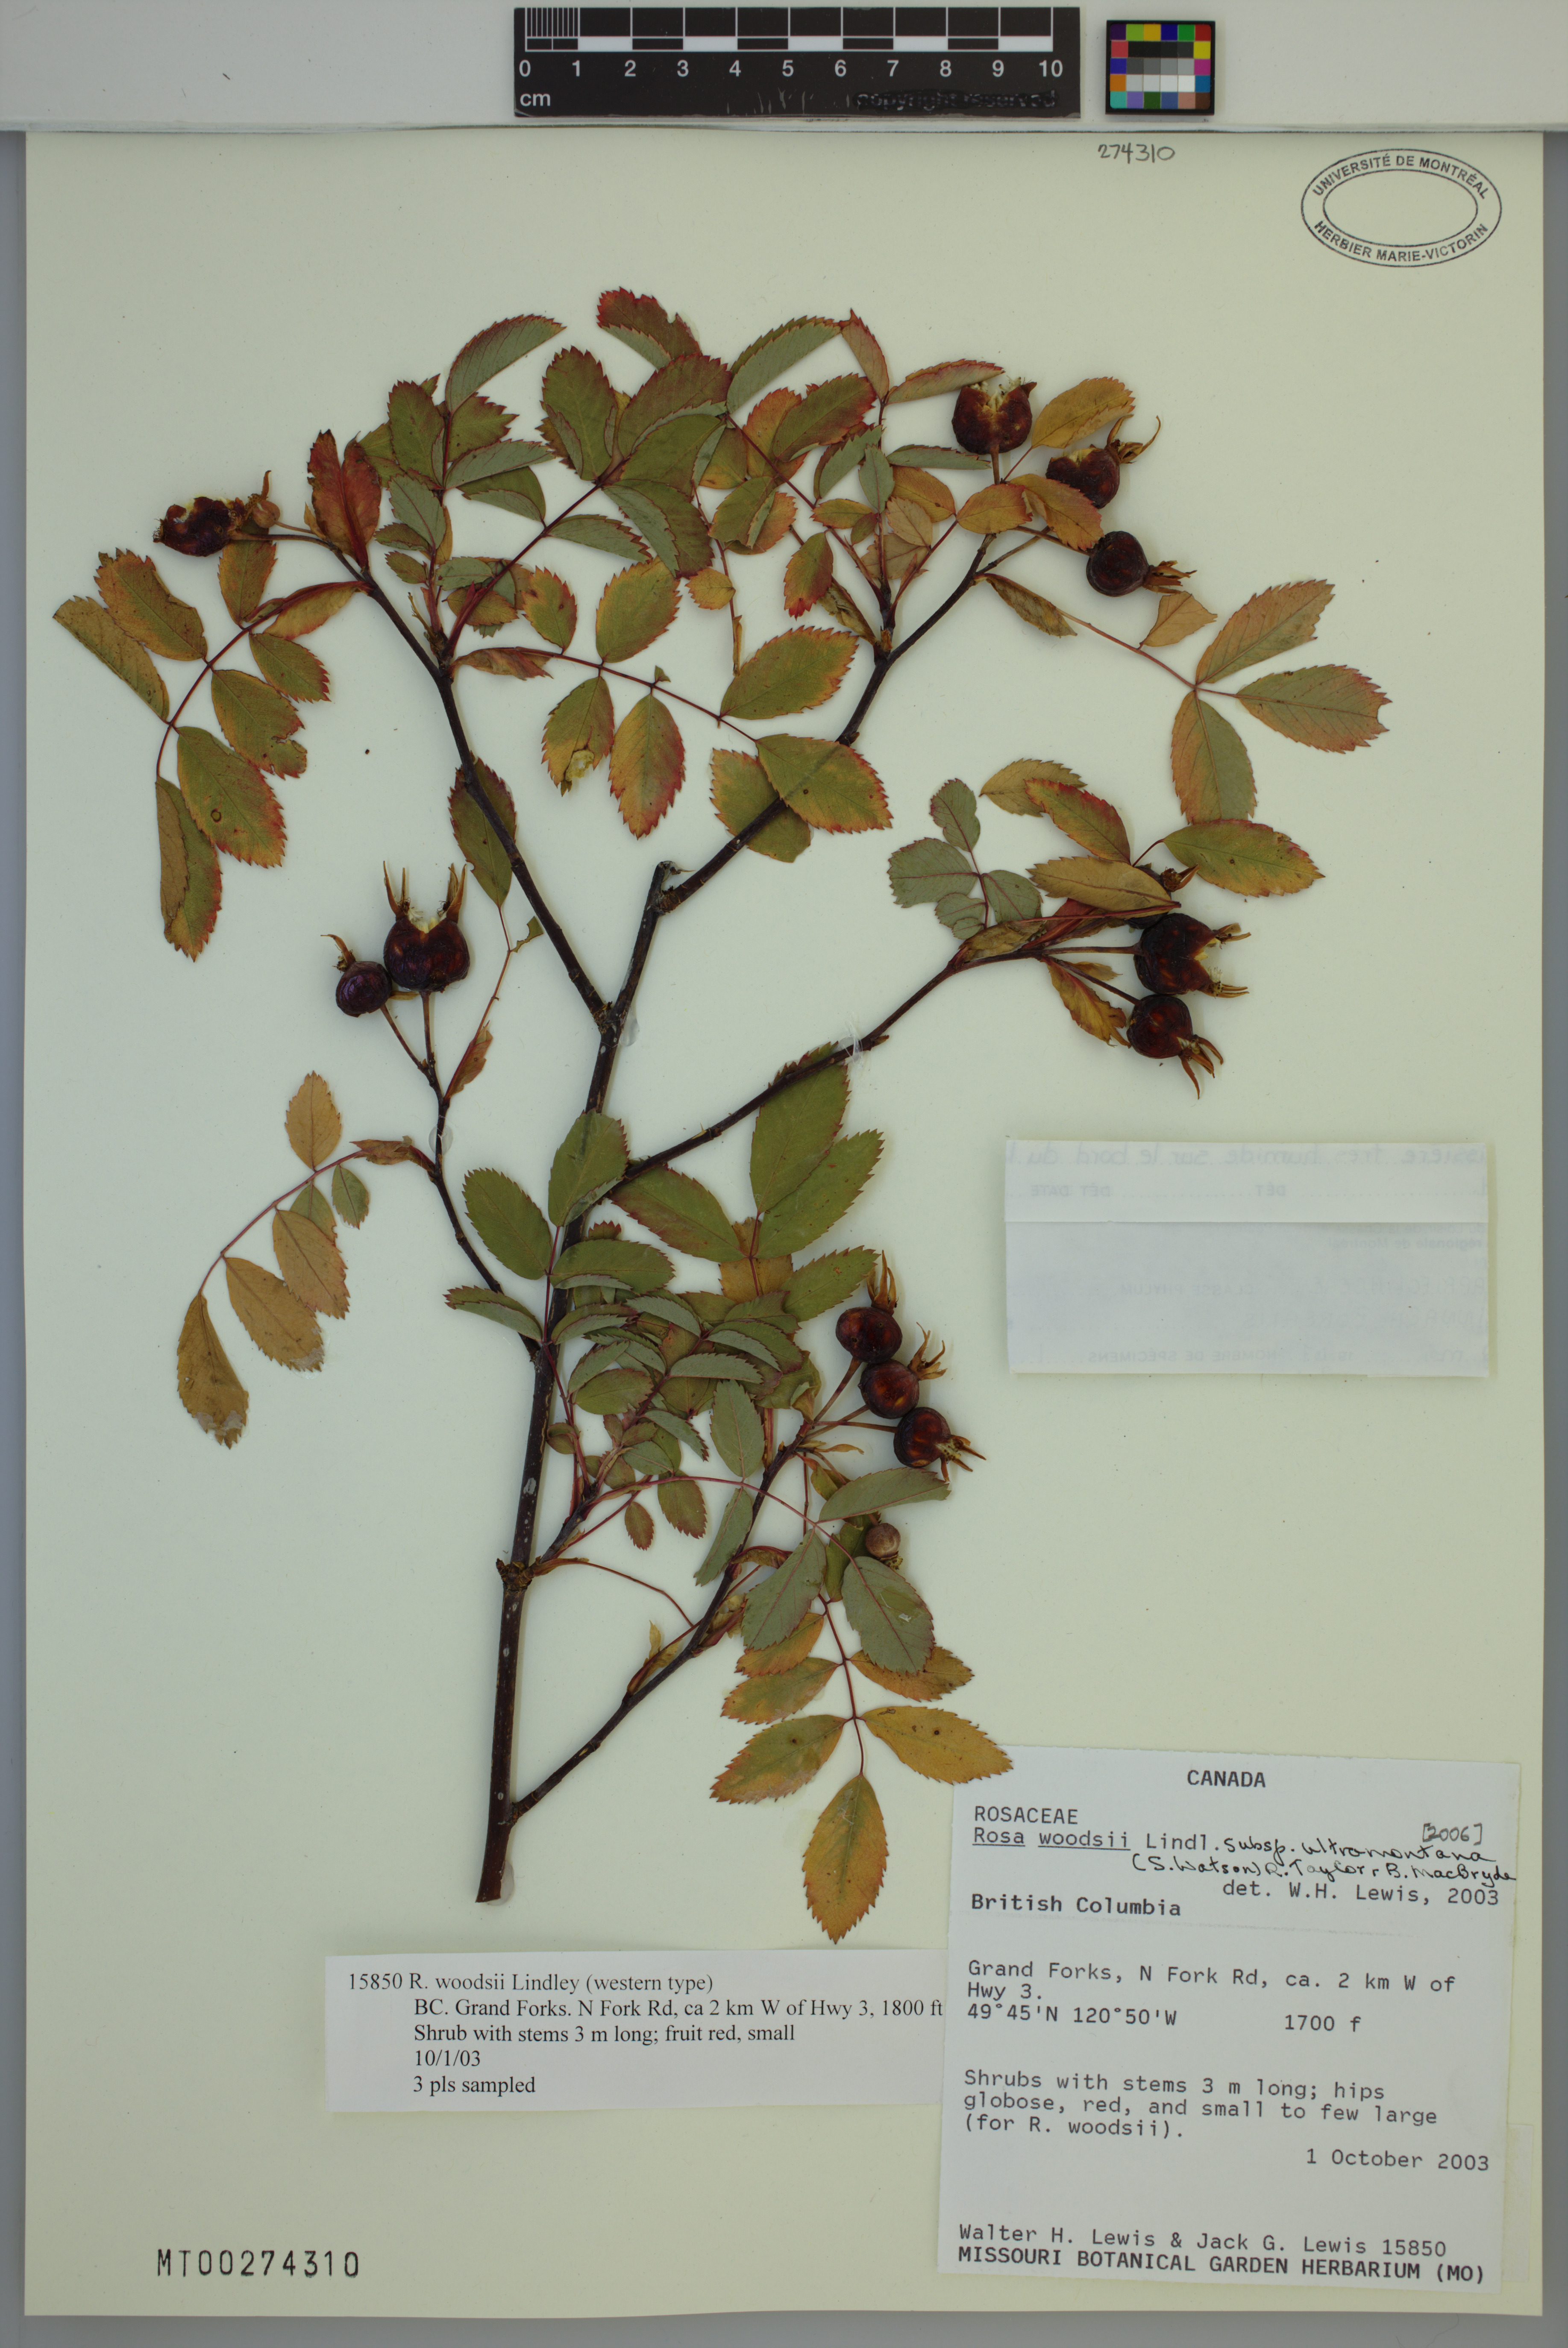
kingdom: Plantae
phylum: Tracheophyta
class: Magnoliopsida
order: Rosales
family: Rosaceae
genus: Rosa
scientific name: Rosa woodsii
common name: Woods's rose
